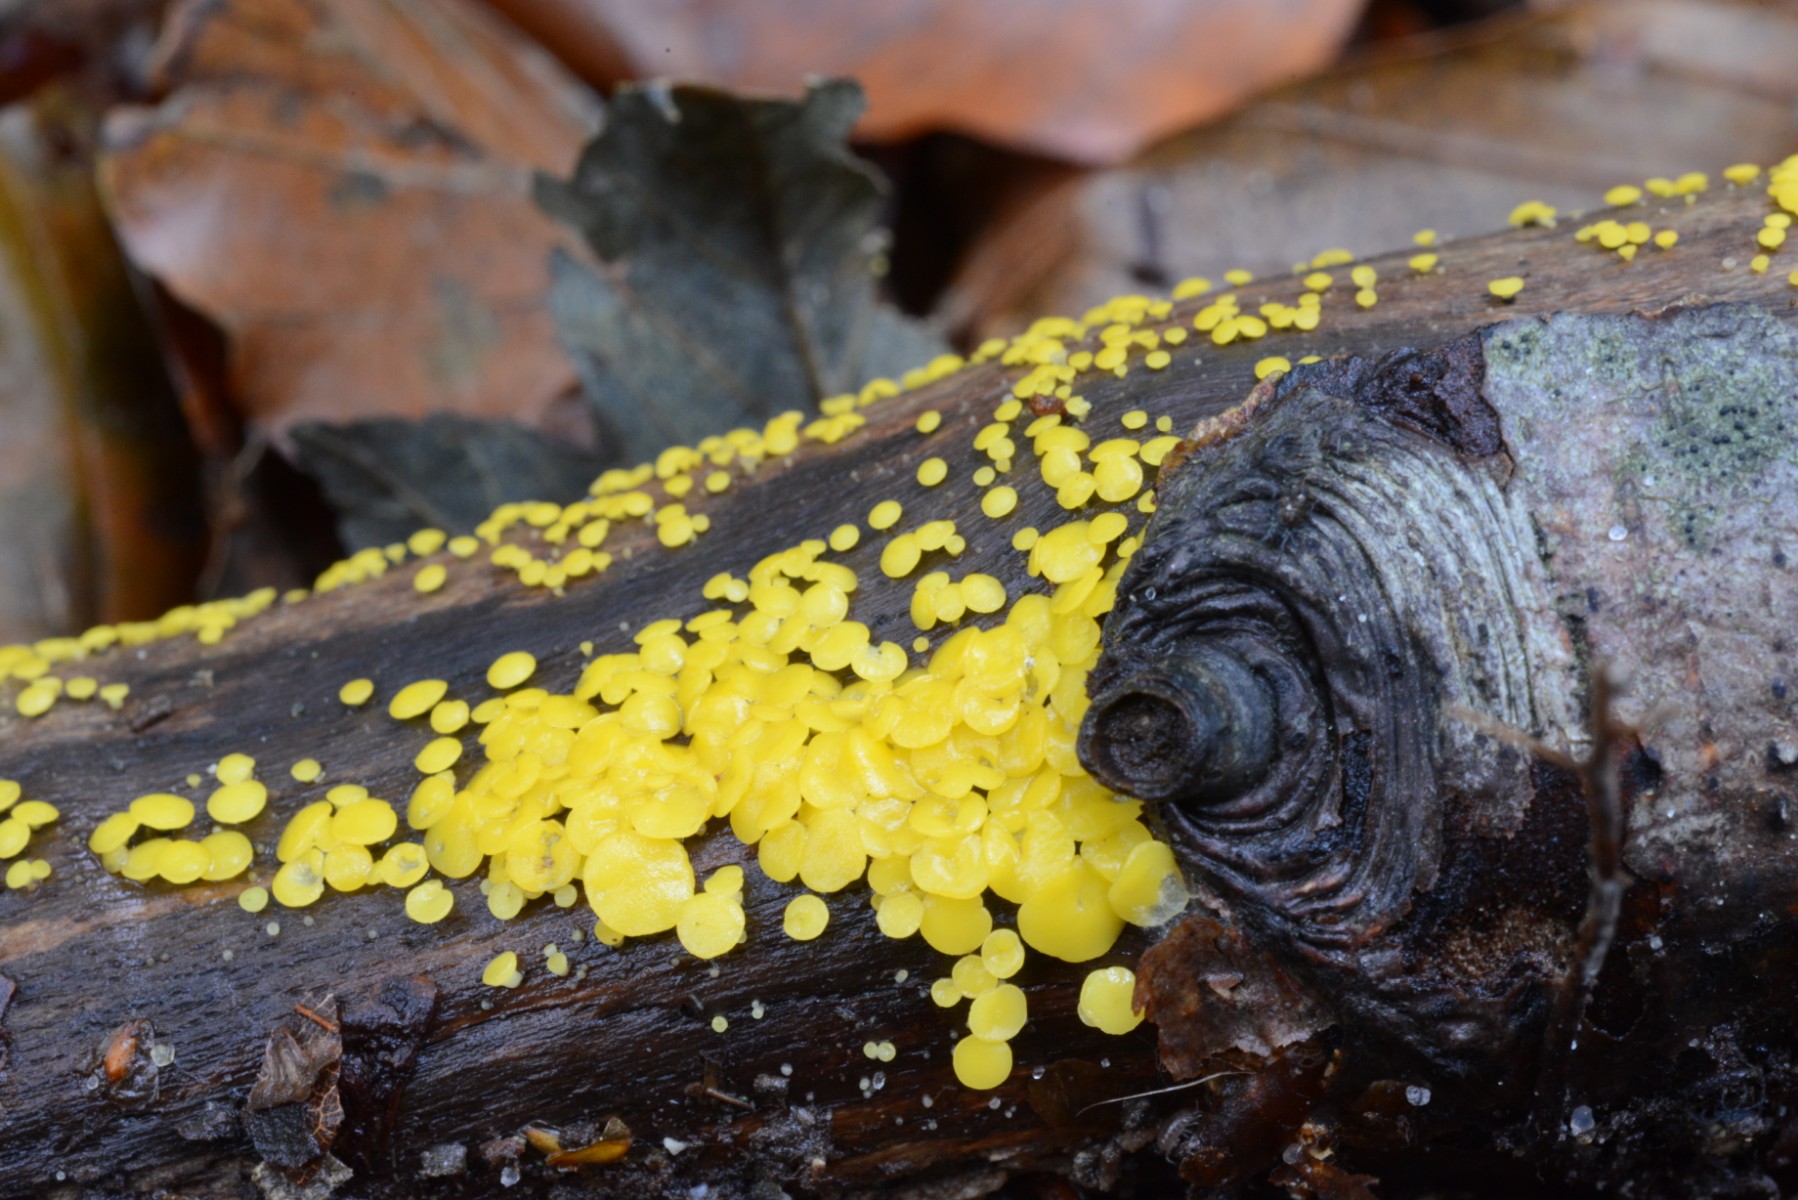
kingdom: Fungi
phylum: Ascomycota
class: Leotiomycetes
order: Helotiales
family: Pezizellaceae
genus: Calycina
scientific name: Calycina citrina
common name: almindelig gulskive
